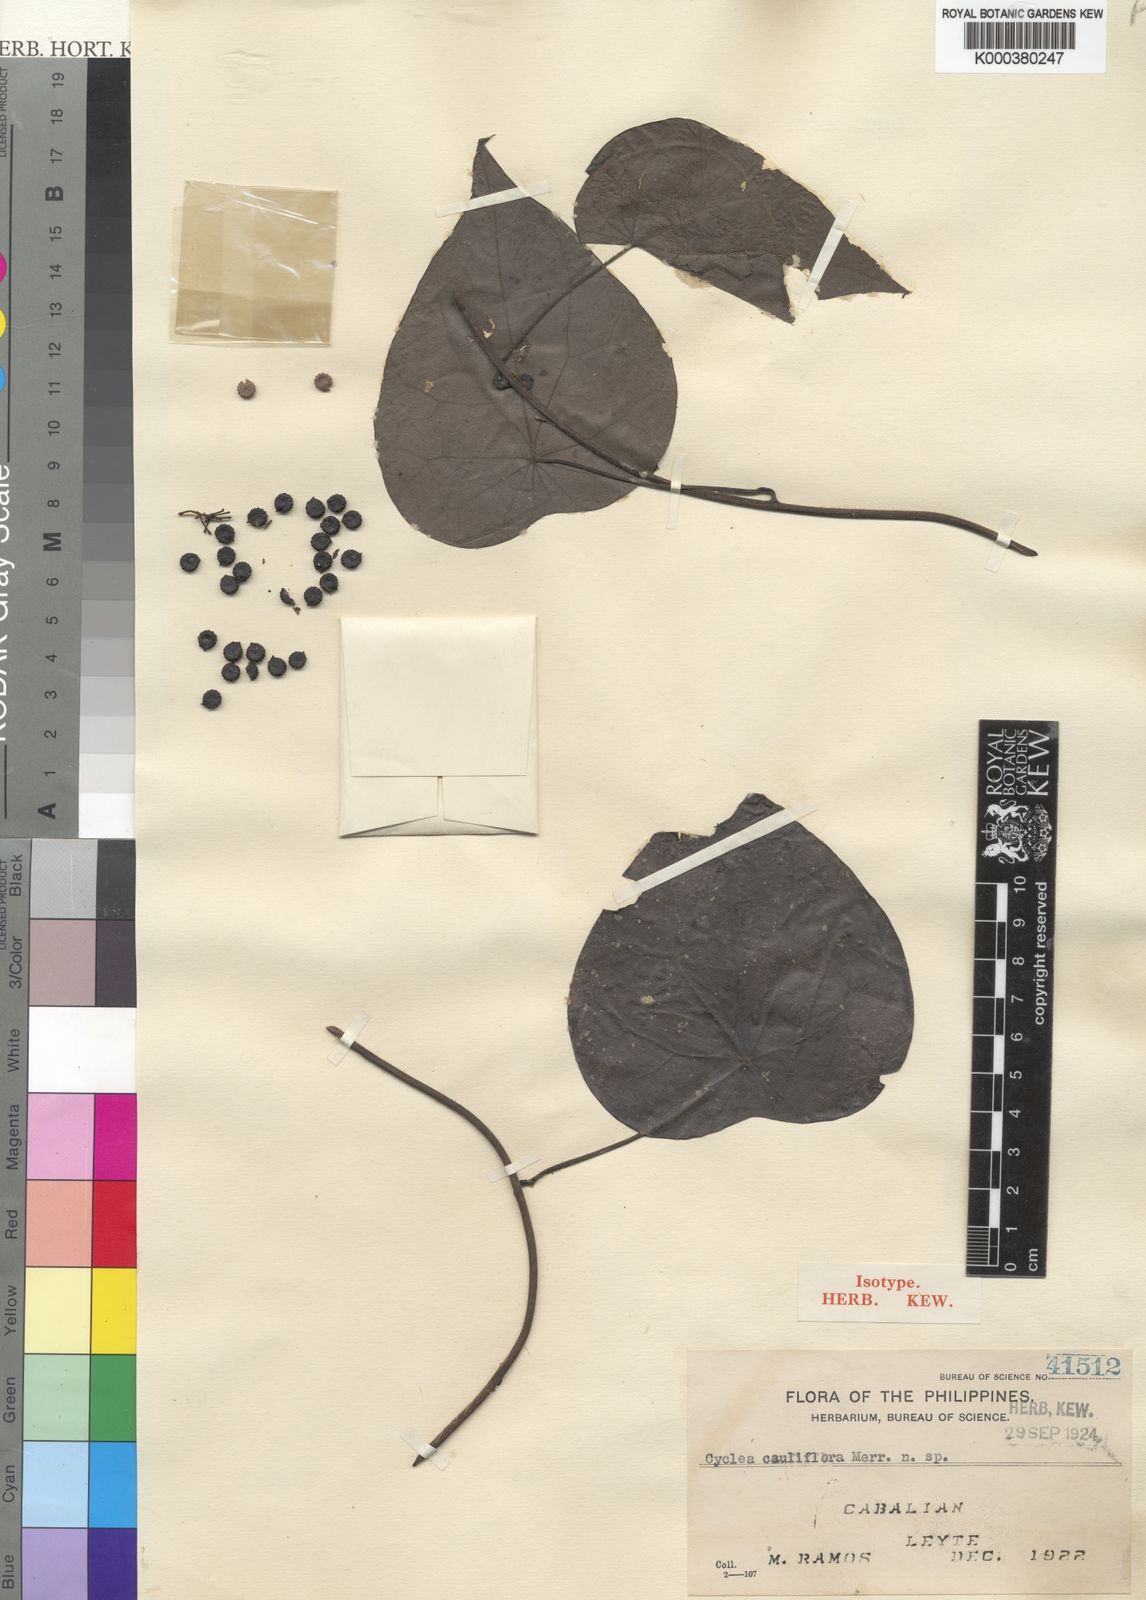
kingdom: Plantae
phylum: Tracheophyta
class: Magnoliopsida
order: Ranunculales
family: Menispermaceae
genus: Cyclea
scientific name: Cyclea cauliflora
